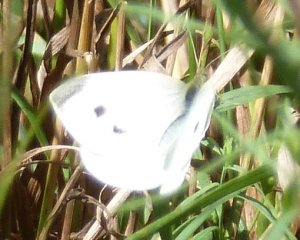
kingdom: Animalia
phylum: Arthropoda
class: Insecta
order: Lepidoptera
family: Pieridae
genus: Pieris
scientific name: Pieris rapae
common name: Cabbage White
